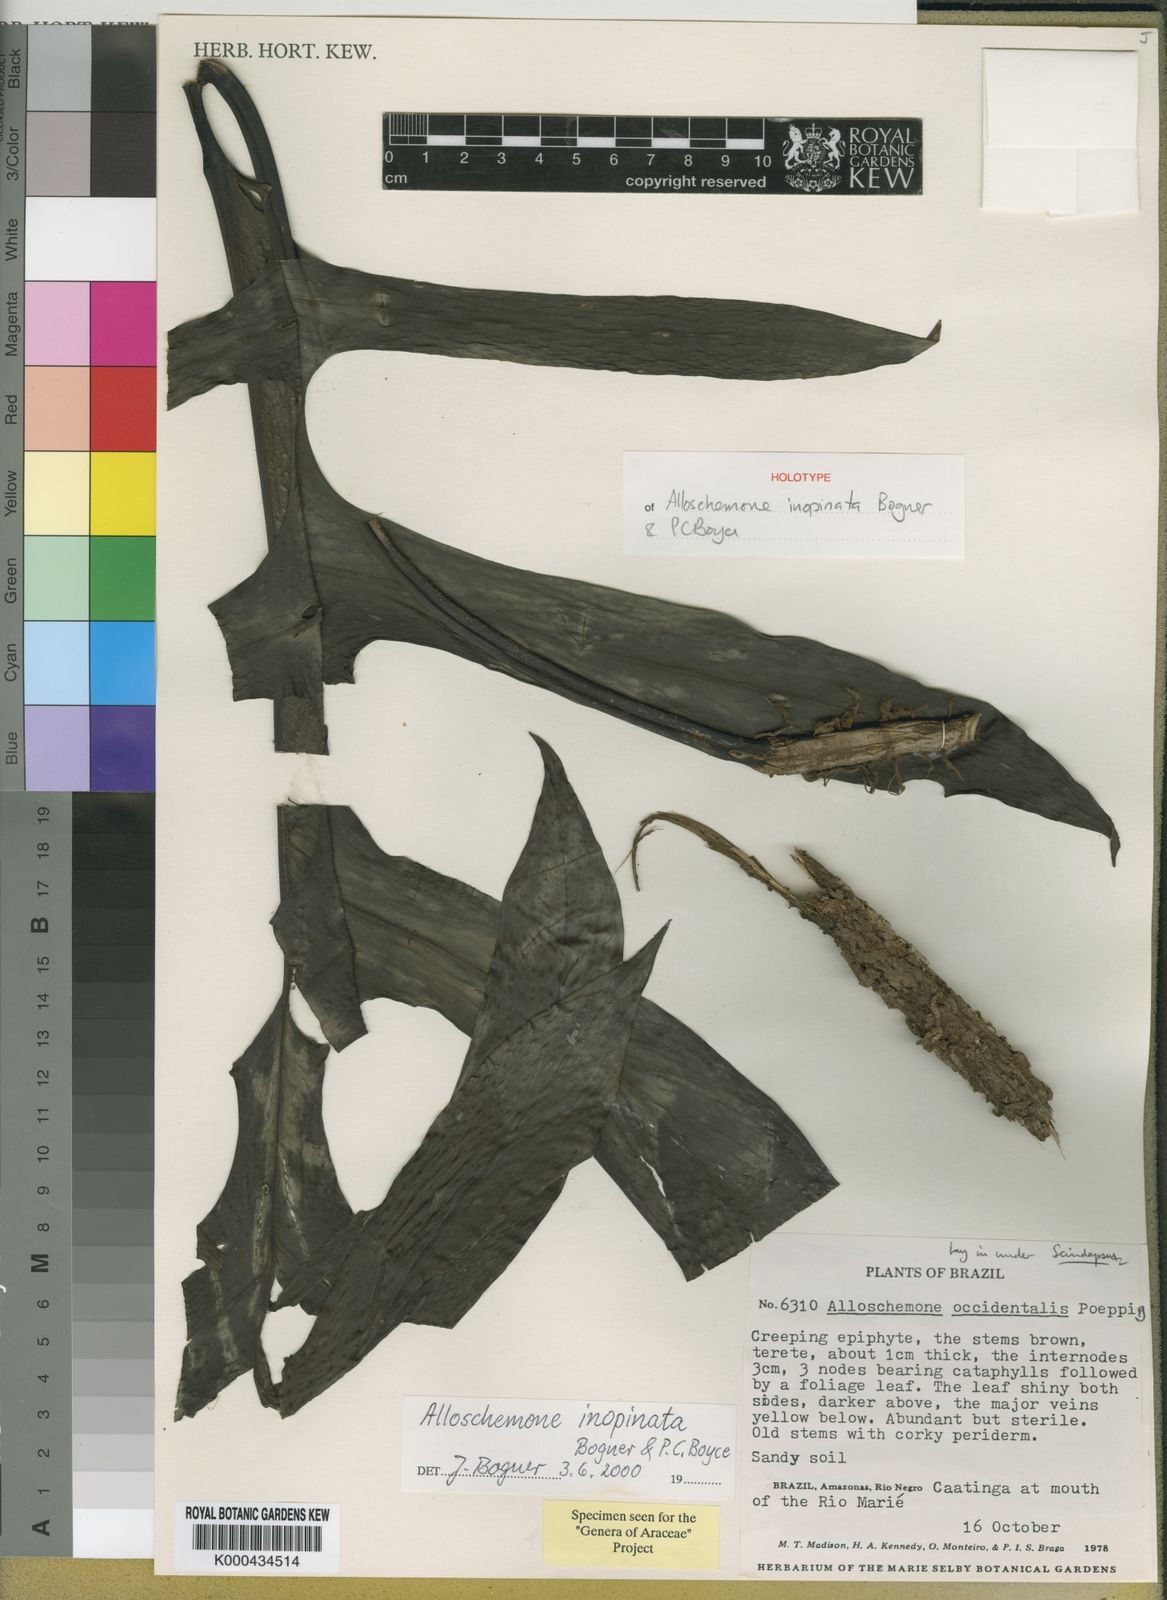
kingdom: Plantae
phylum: Tracheophyta
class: Liliopsida
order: Alismatales
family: Araceae
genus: Alloschemone
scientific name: Alloschemone inopinata
